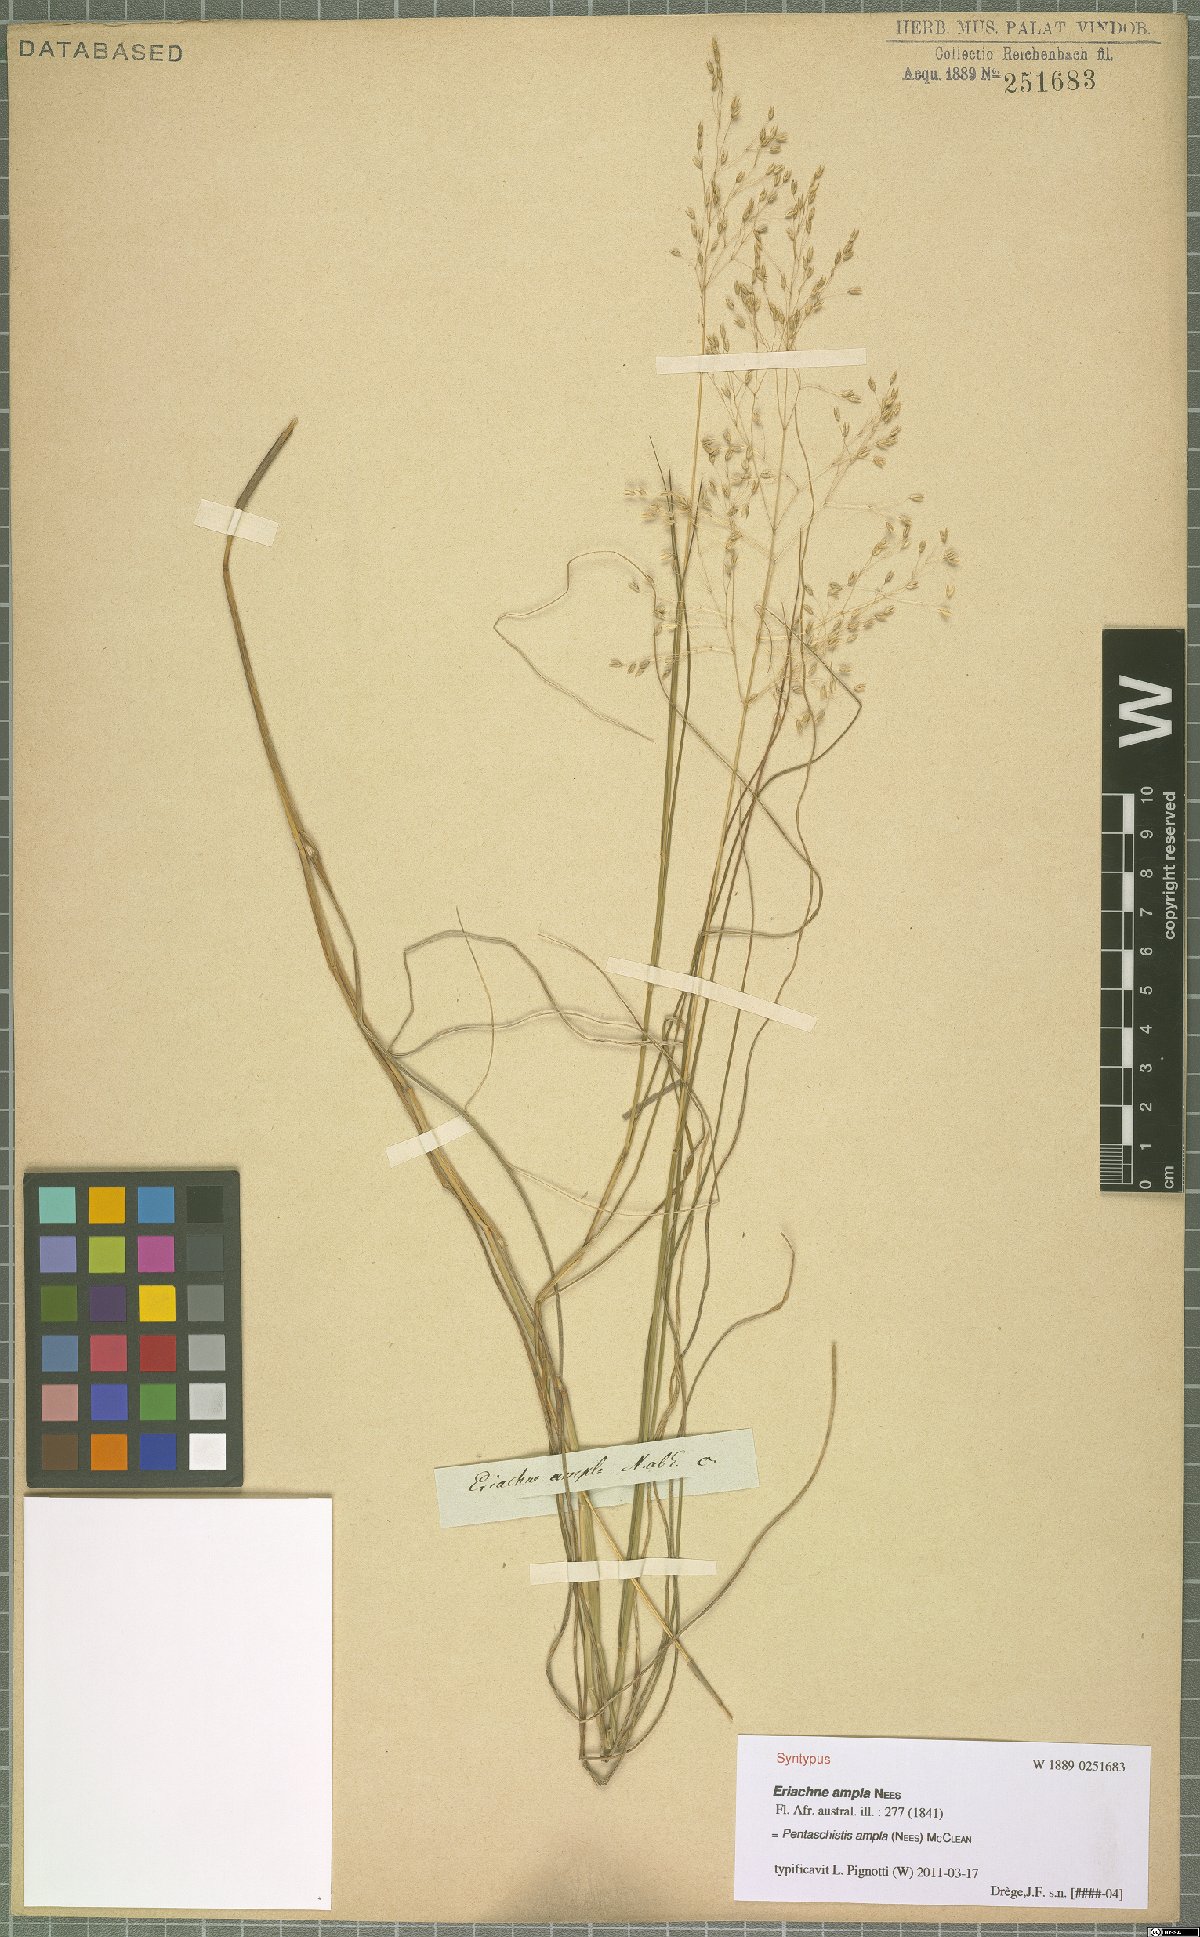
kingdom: Plantae
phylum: Tracheophyta
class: Liliopsida
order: Poales
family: Poaceae
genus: Pentameris
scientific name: Pentameris ampla
